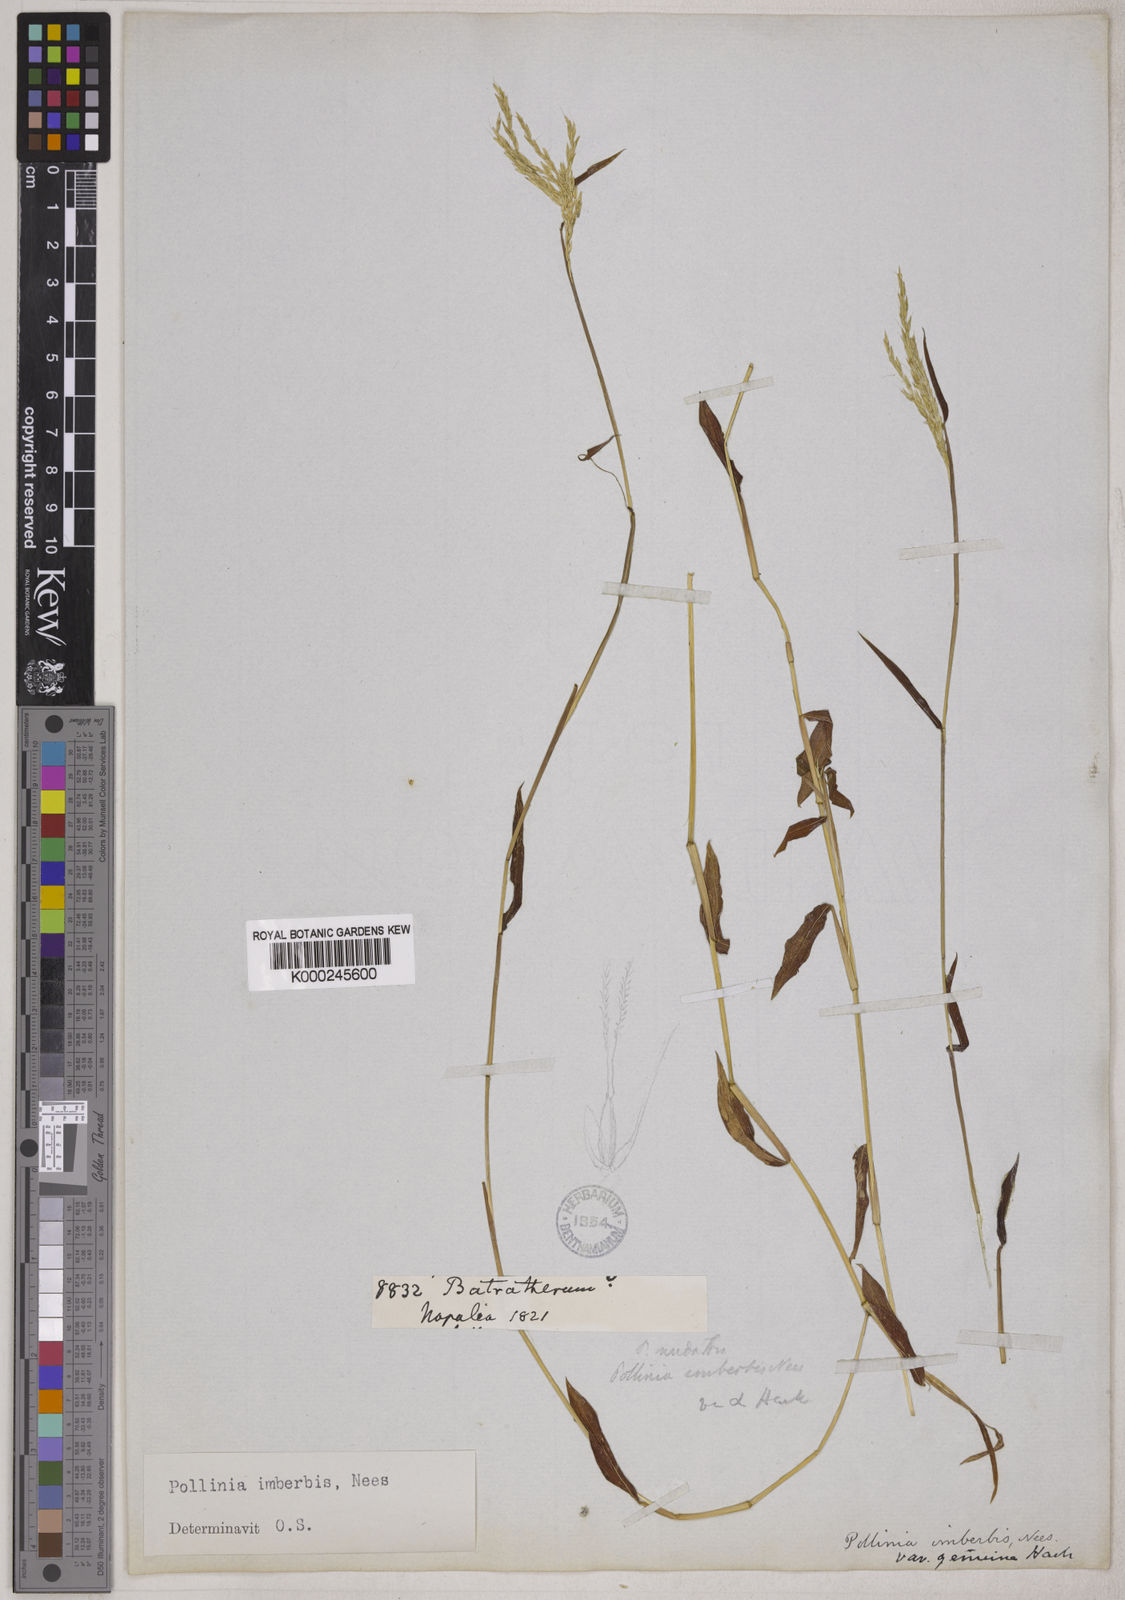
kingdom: Plantae
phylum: Tracheophyta
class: Liliopsida
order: Poales
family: Poaceae
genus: Microstegium
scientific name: Microstegium vimineum
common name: Japanese stiltgrass
